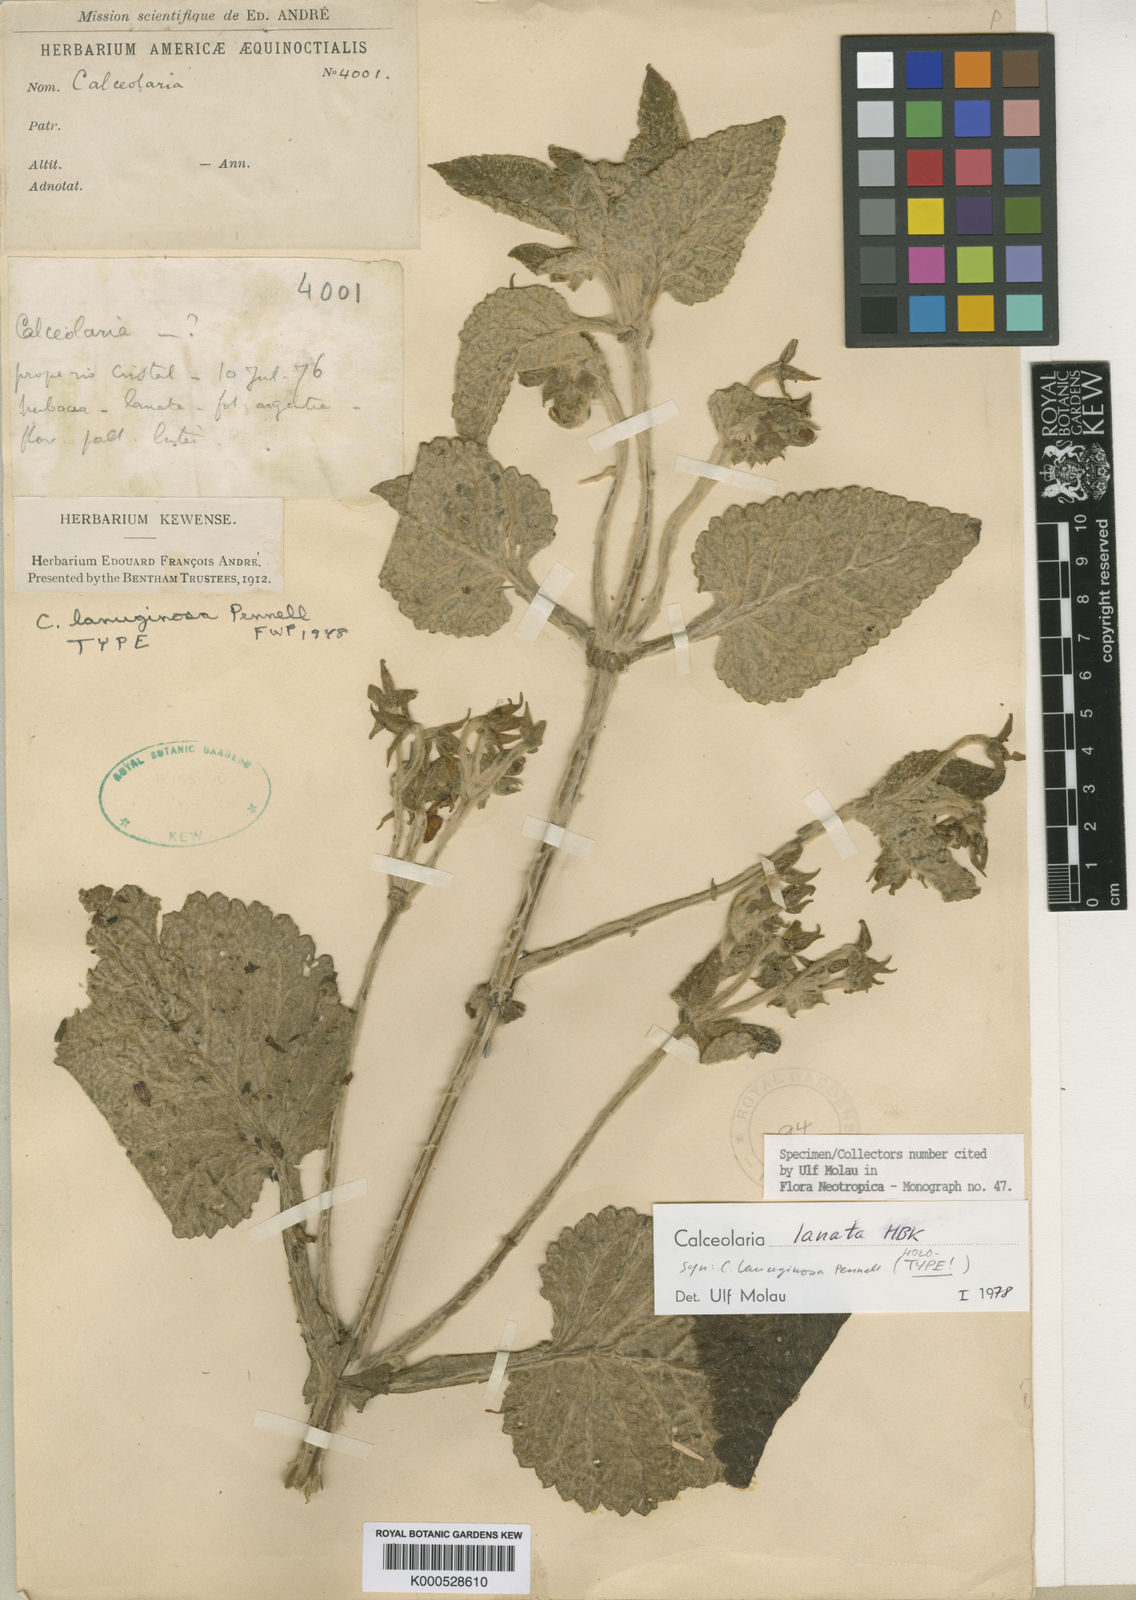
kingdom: Plantae
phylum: Tracheophyta
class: Magnoliopsida
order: Lamiales
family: Calceolariaceae
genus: Calceolaria
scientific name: Calceolaria lanata
